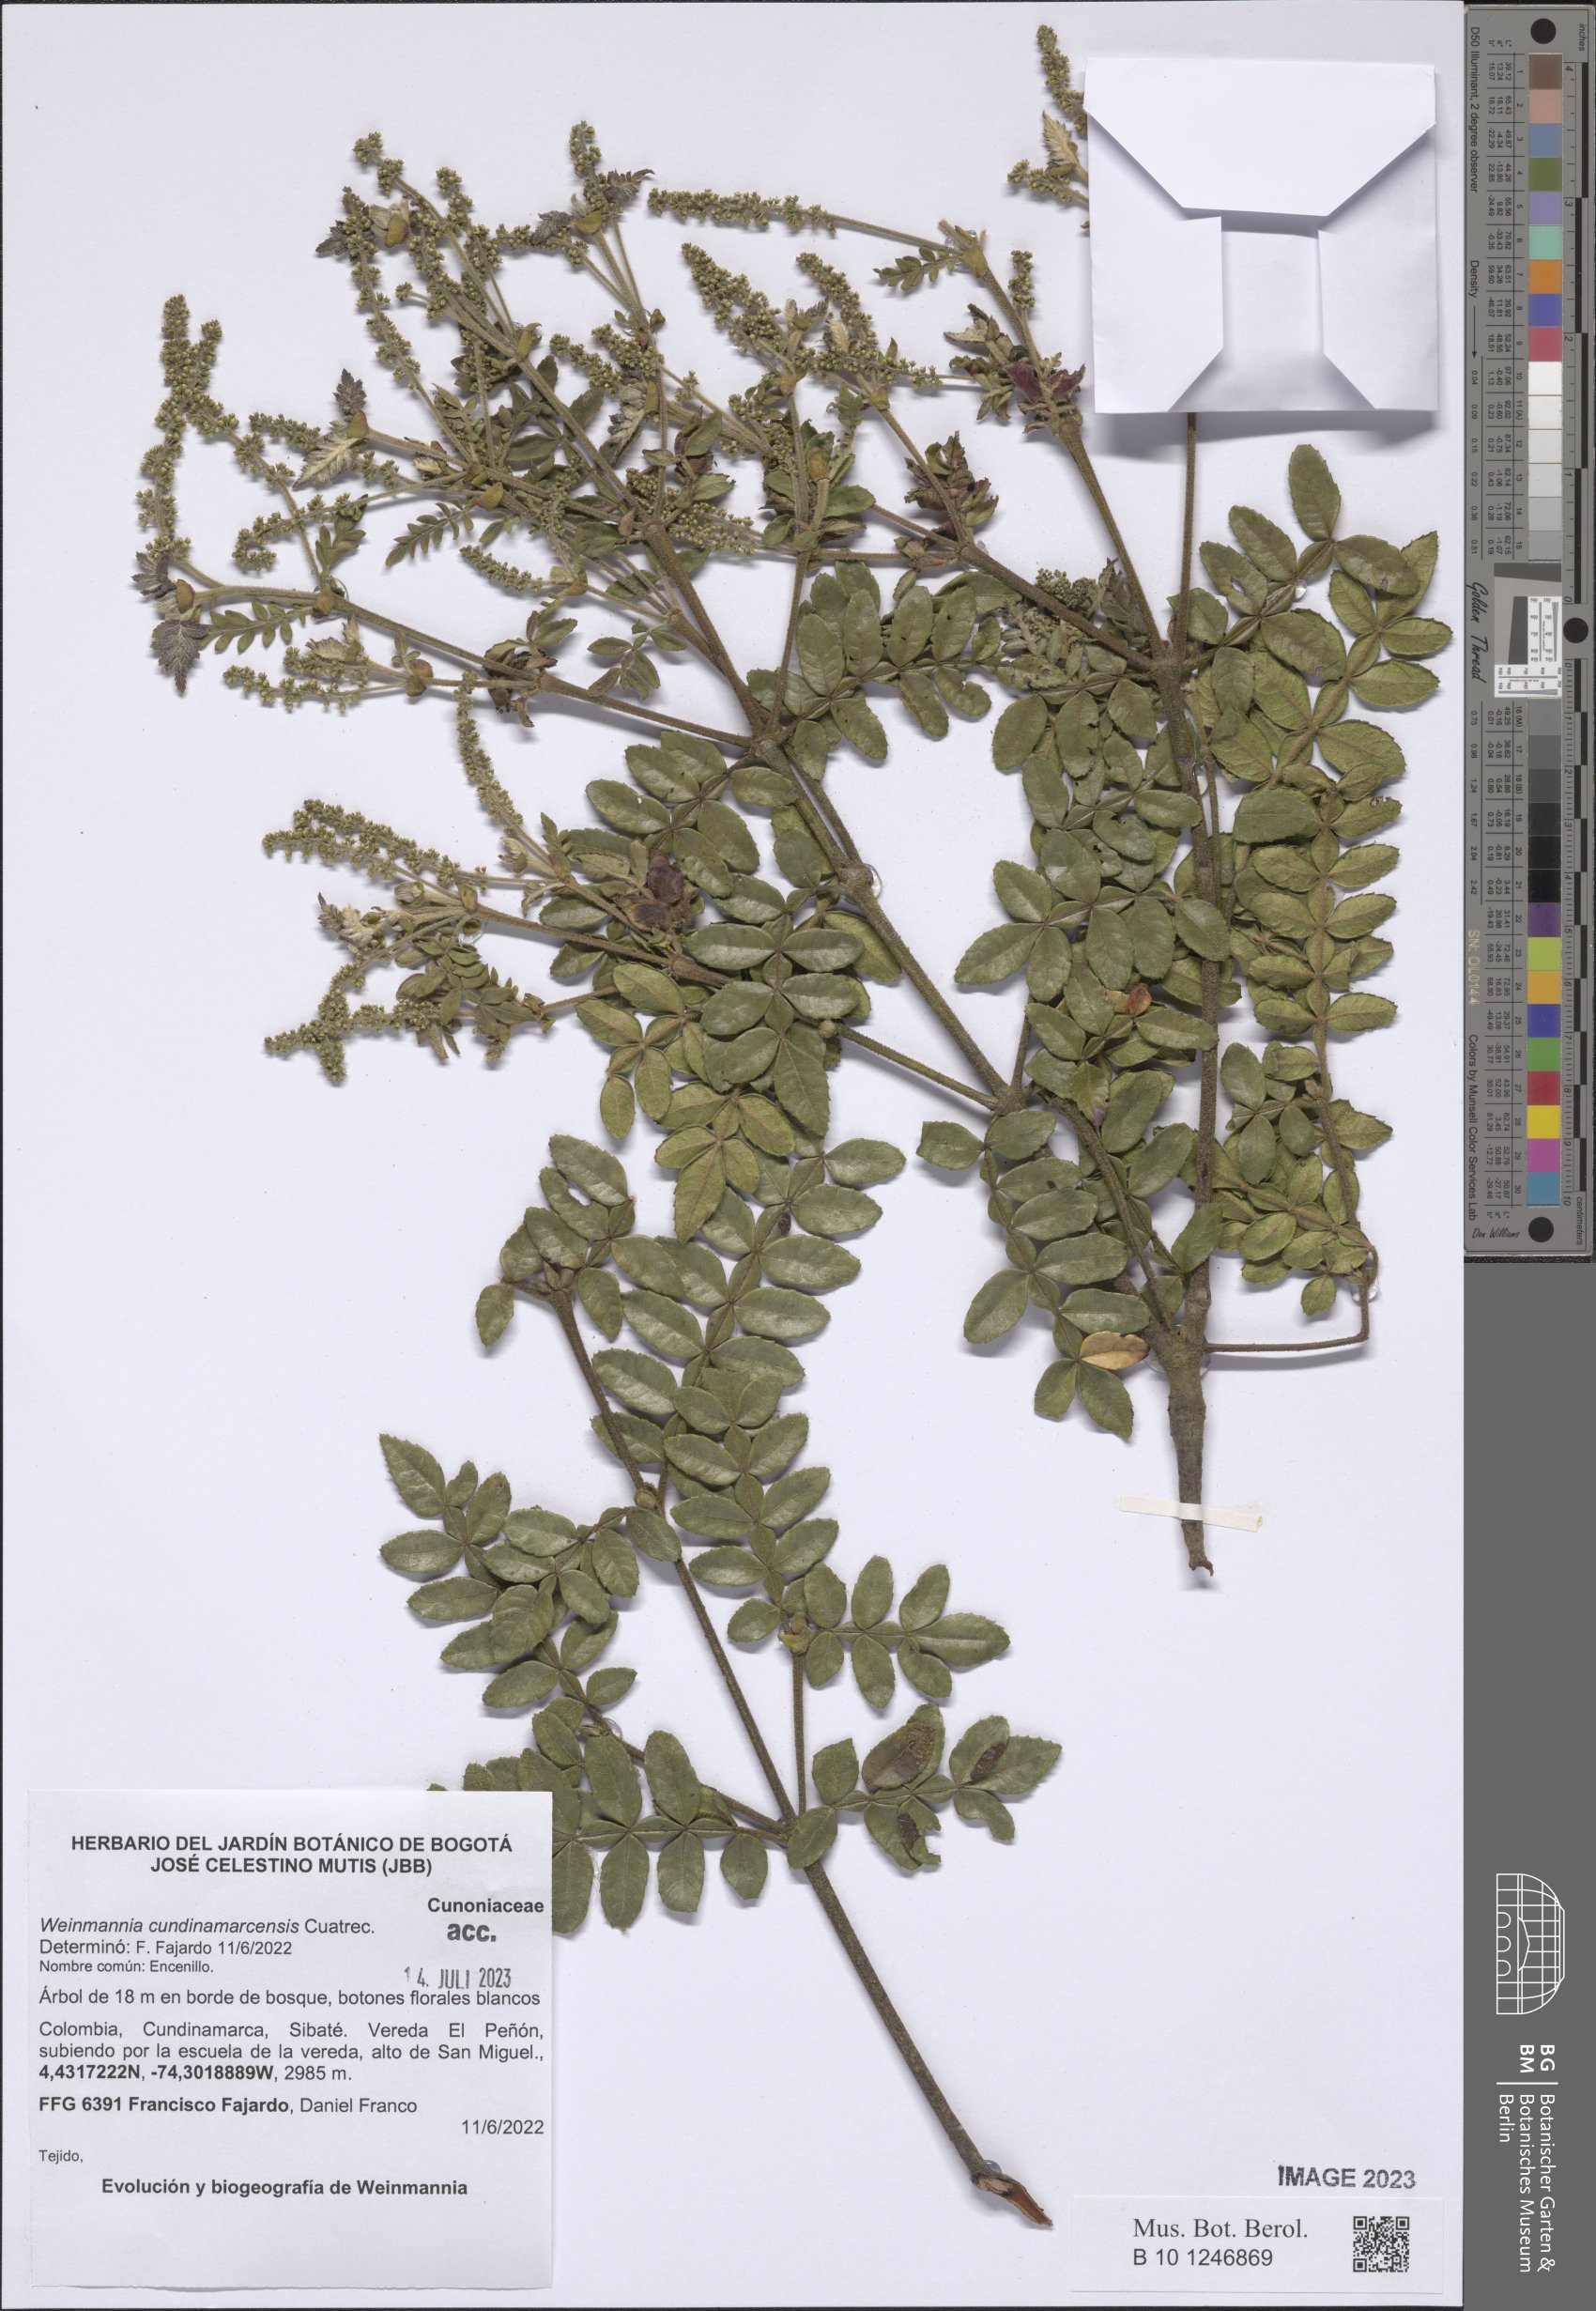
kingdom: Plantae
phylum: Tracheophyta
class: Magnoliopsida
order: Oxalidales
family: Cunoniaceae
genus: Weinmannia
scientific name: Weinmannia cundinamarcensis
